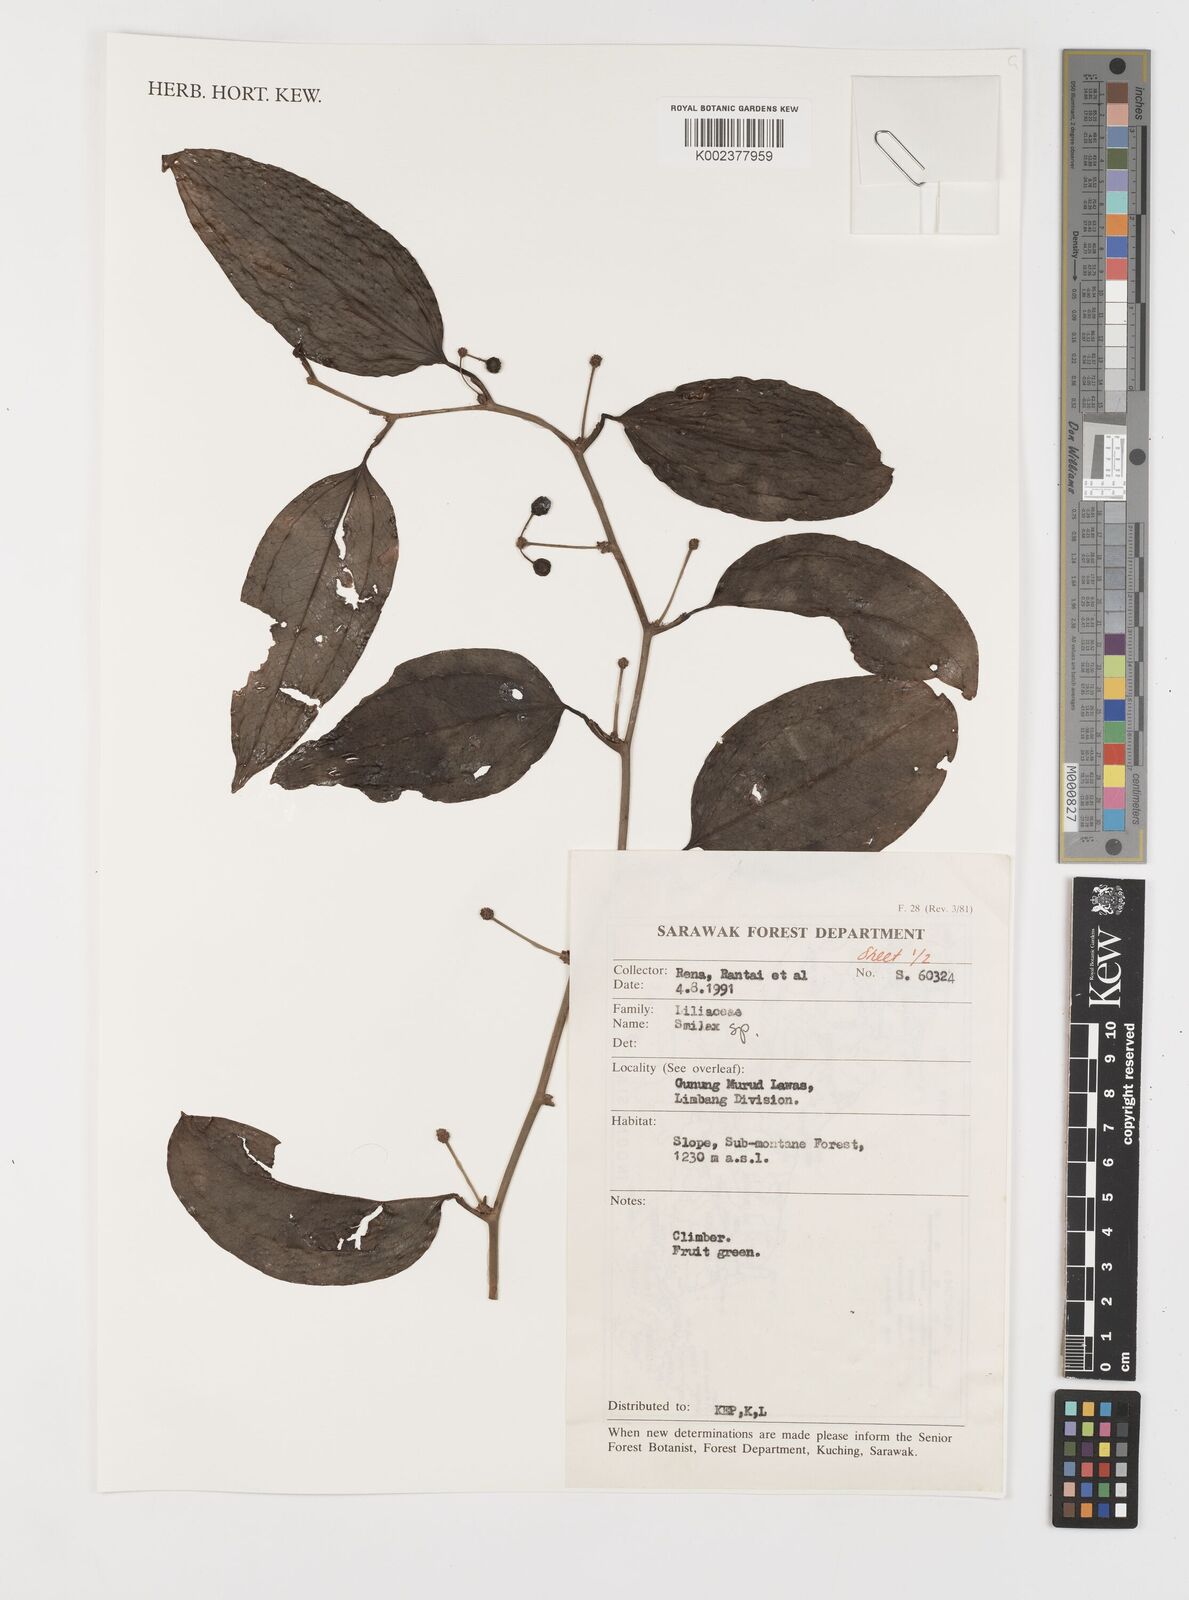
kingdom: Plantae
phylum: Tracheophyta
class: Liliopsida
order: Liliales
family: Smilacaceae
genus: Smilax
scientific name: Smilax
